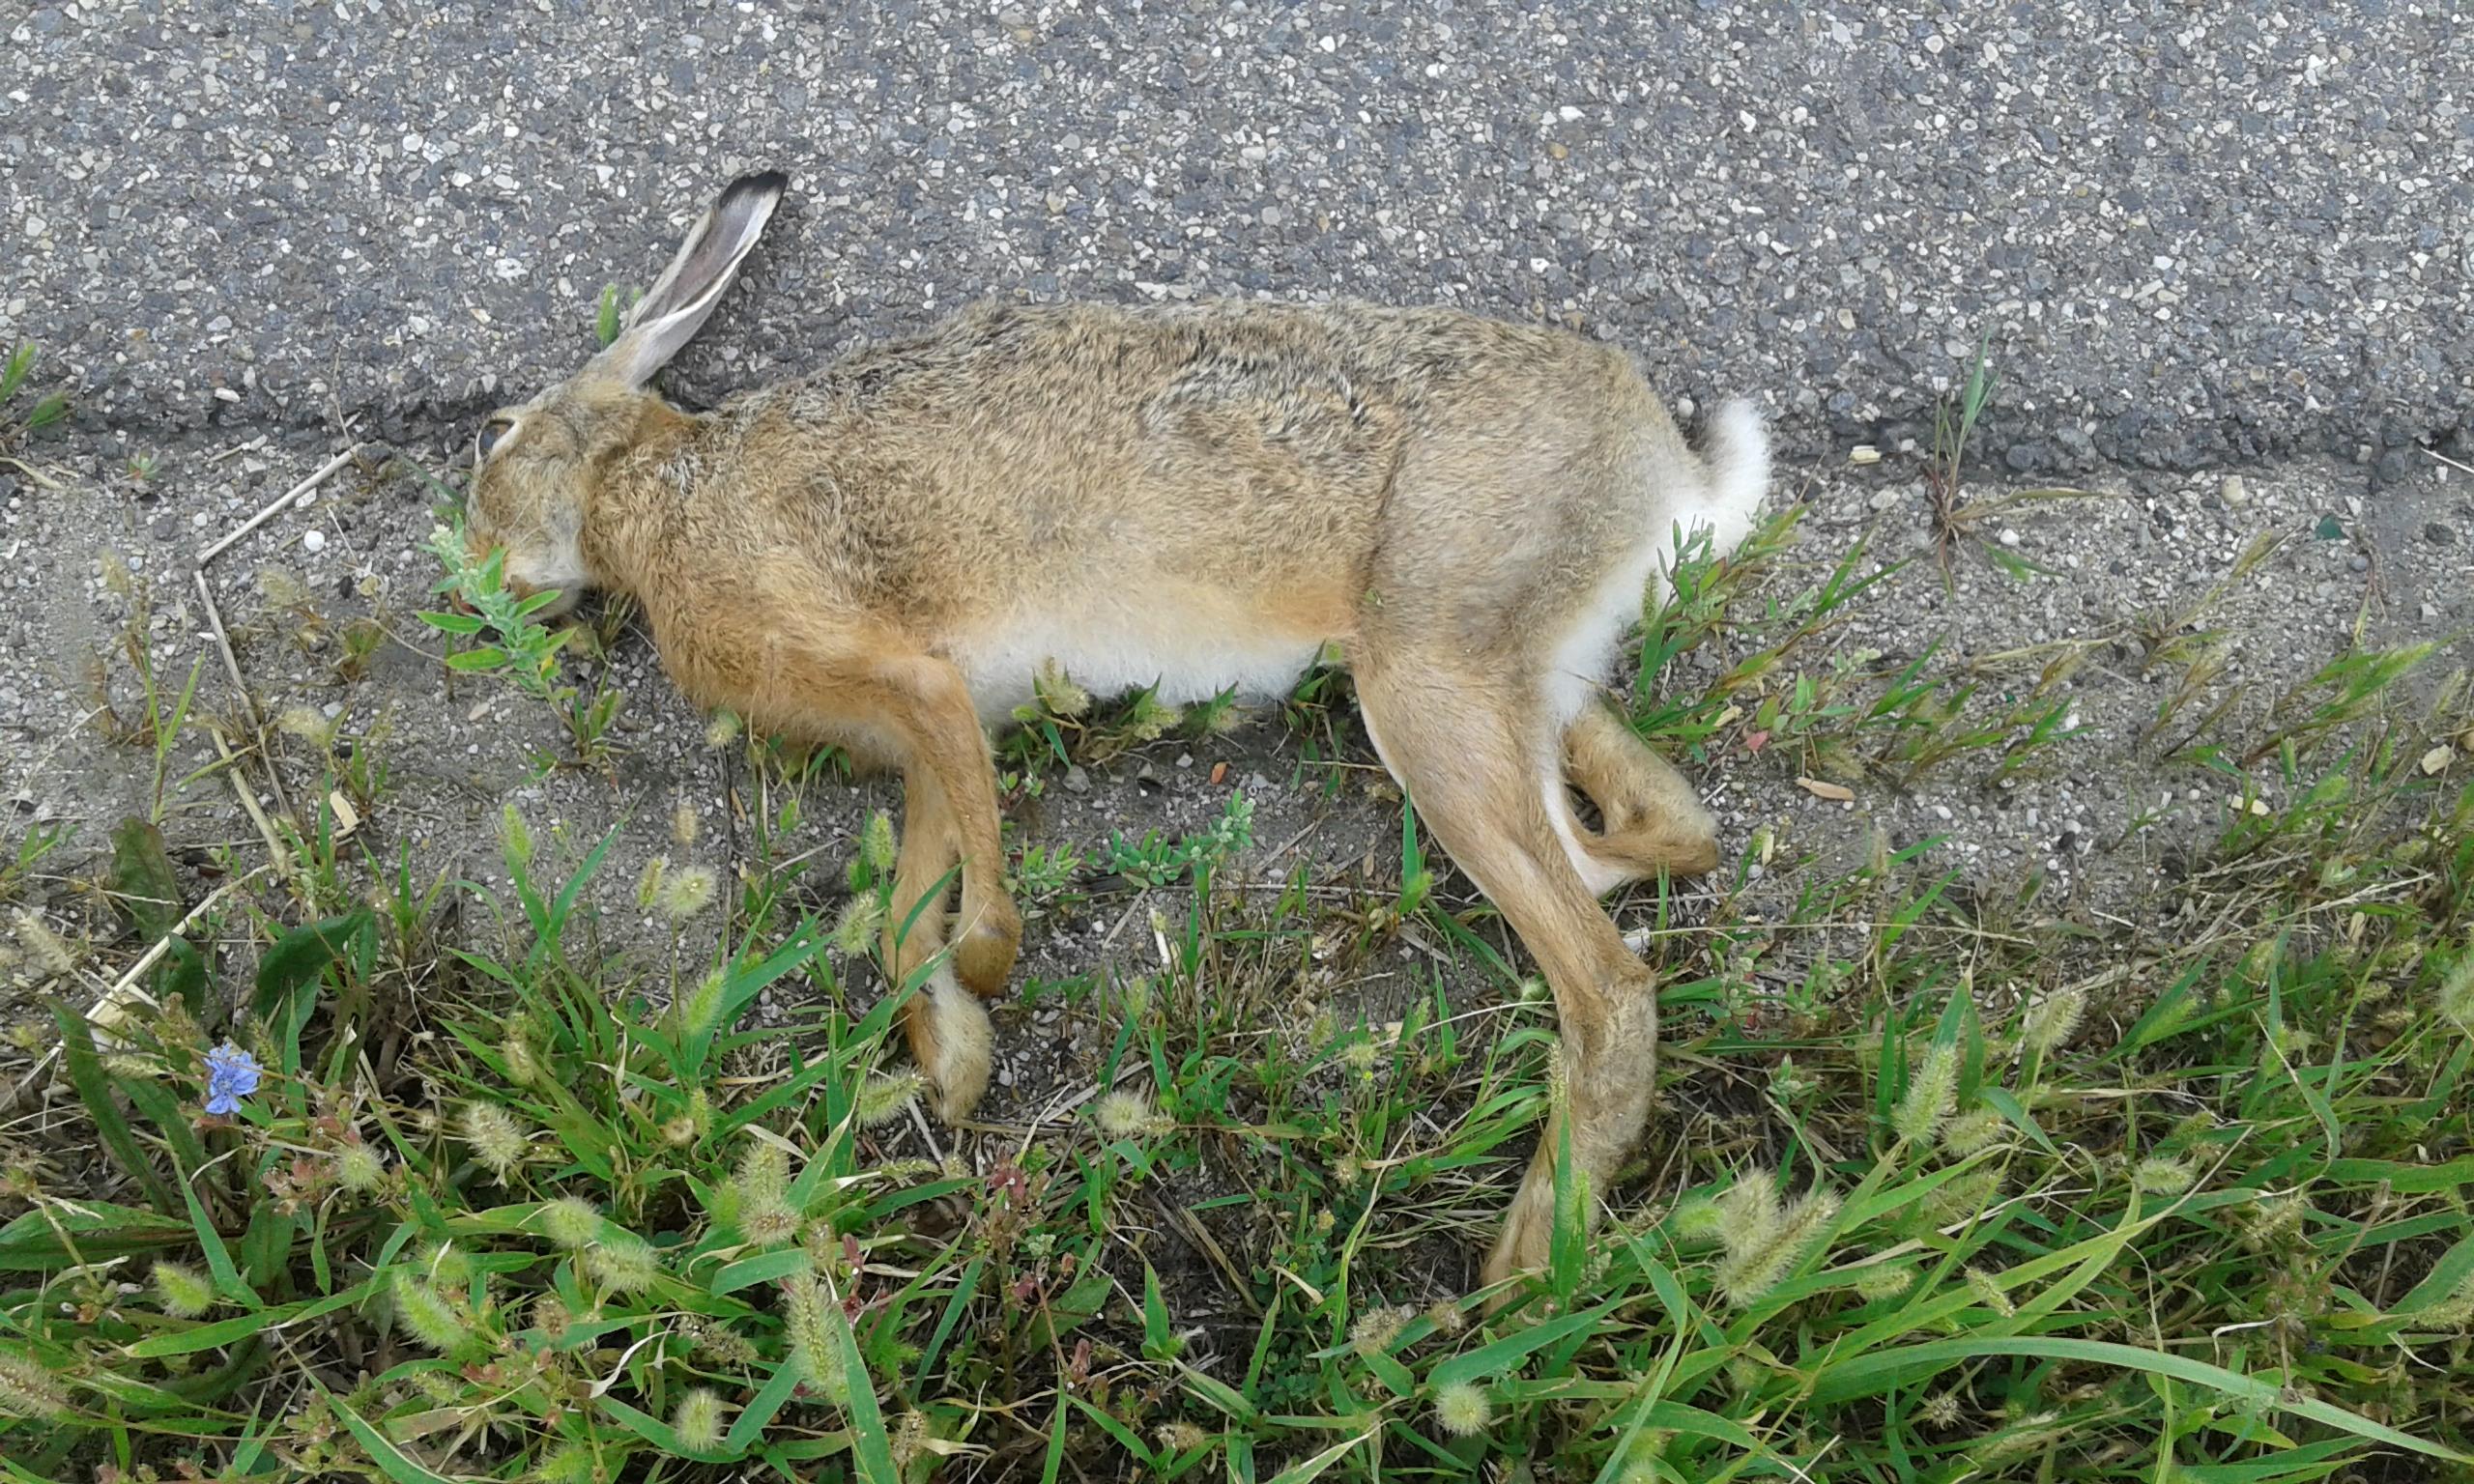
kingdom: Animalia
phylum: Chordata
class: Mammalia
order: Lagomorpha
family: Leporidae
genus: Lepus
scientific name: Lepus europaeus
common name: European hare
